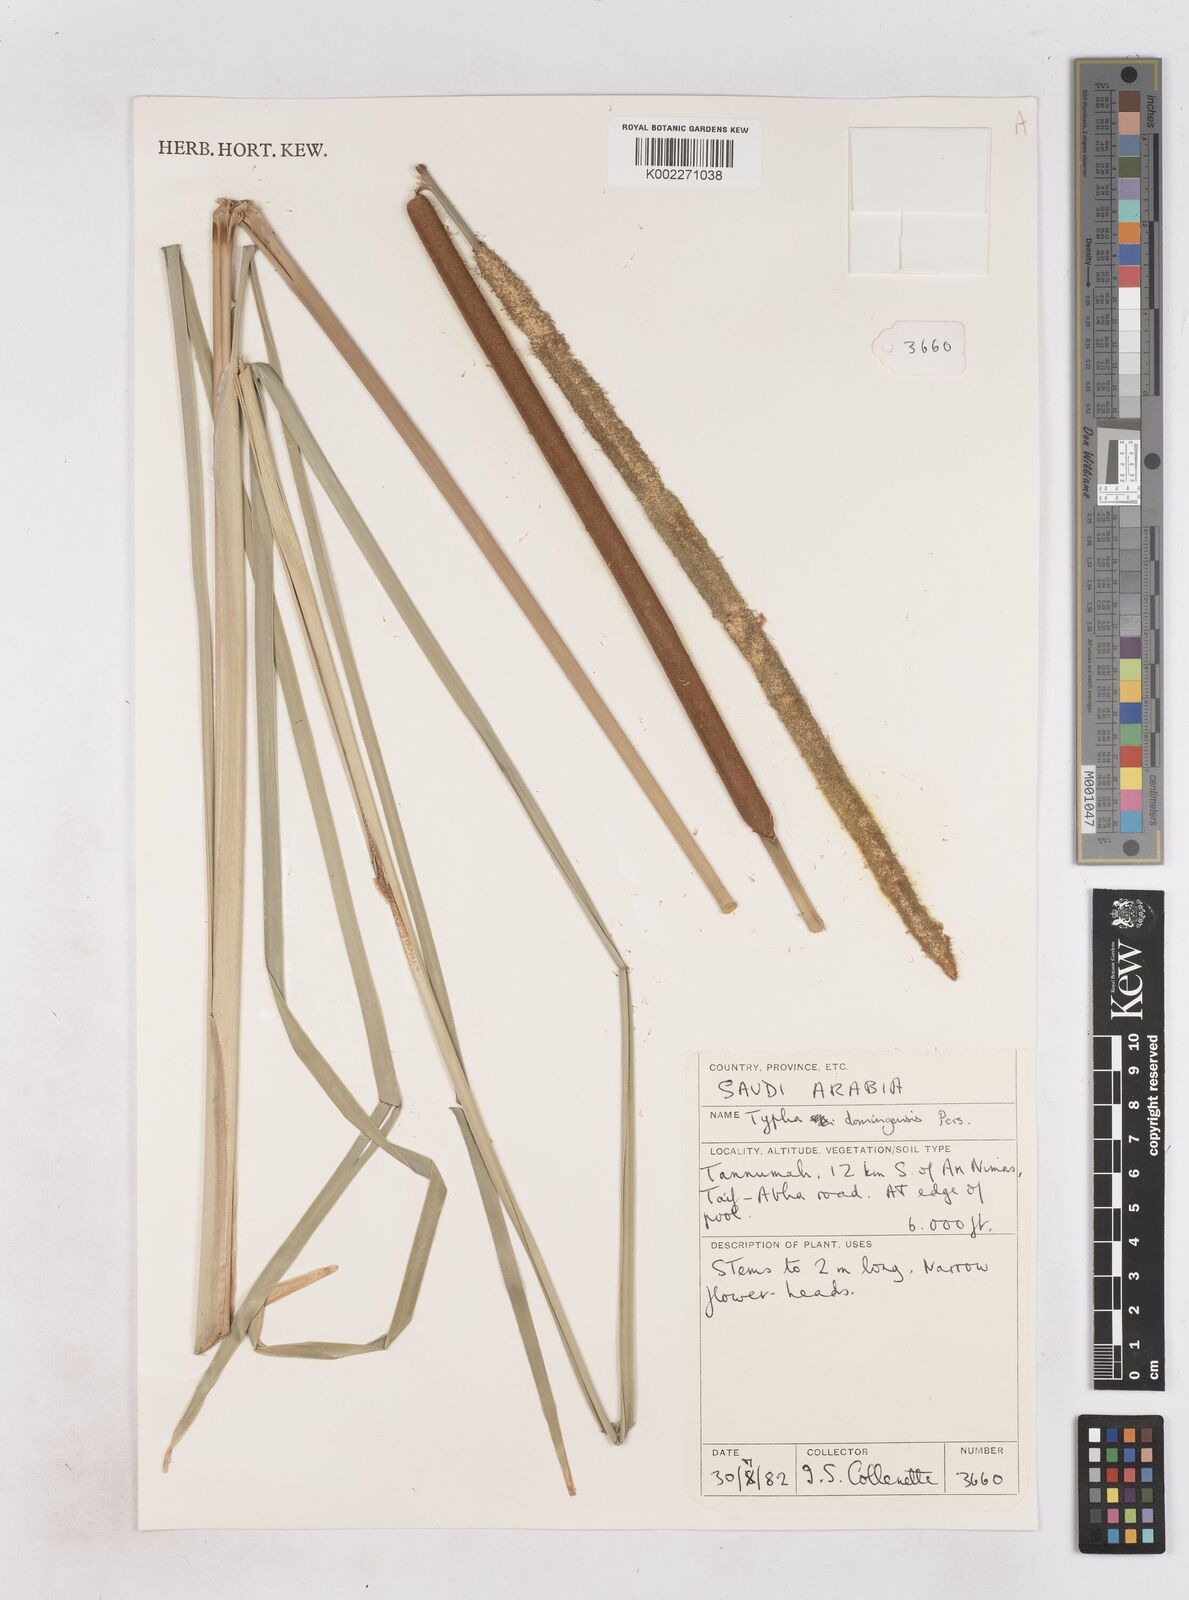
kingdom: Plantae
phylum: Tracheophyta
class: Liliopsida
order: Poales
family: Typhaceae
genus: Typha
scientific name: Typha domingensis
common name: Southern cattail
